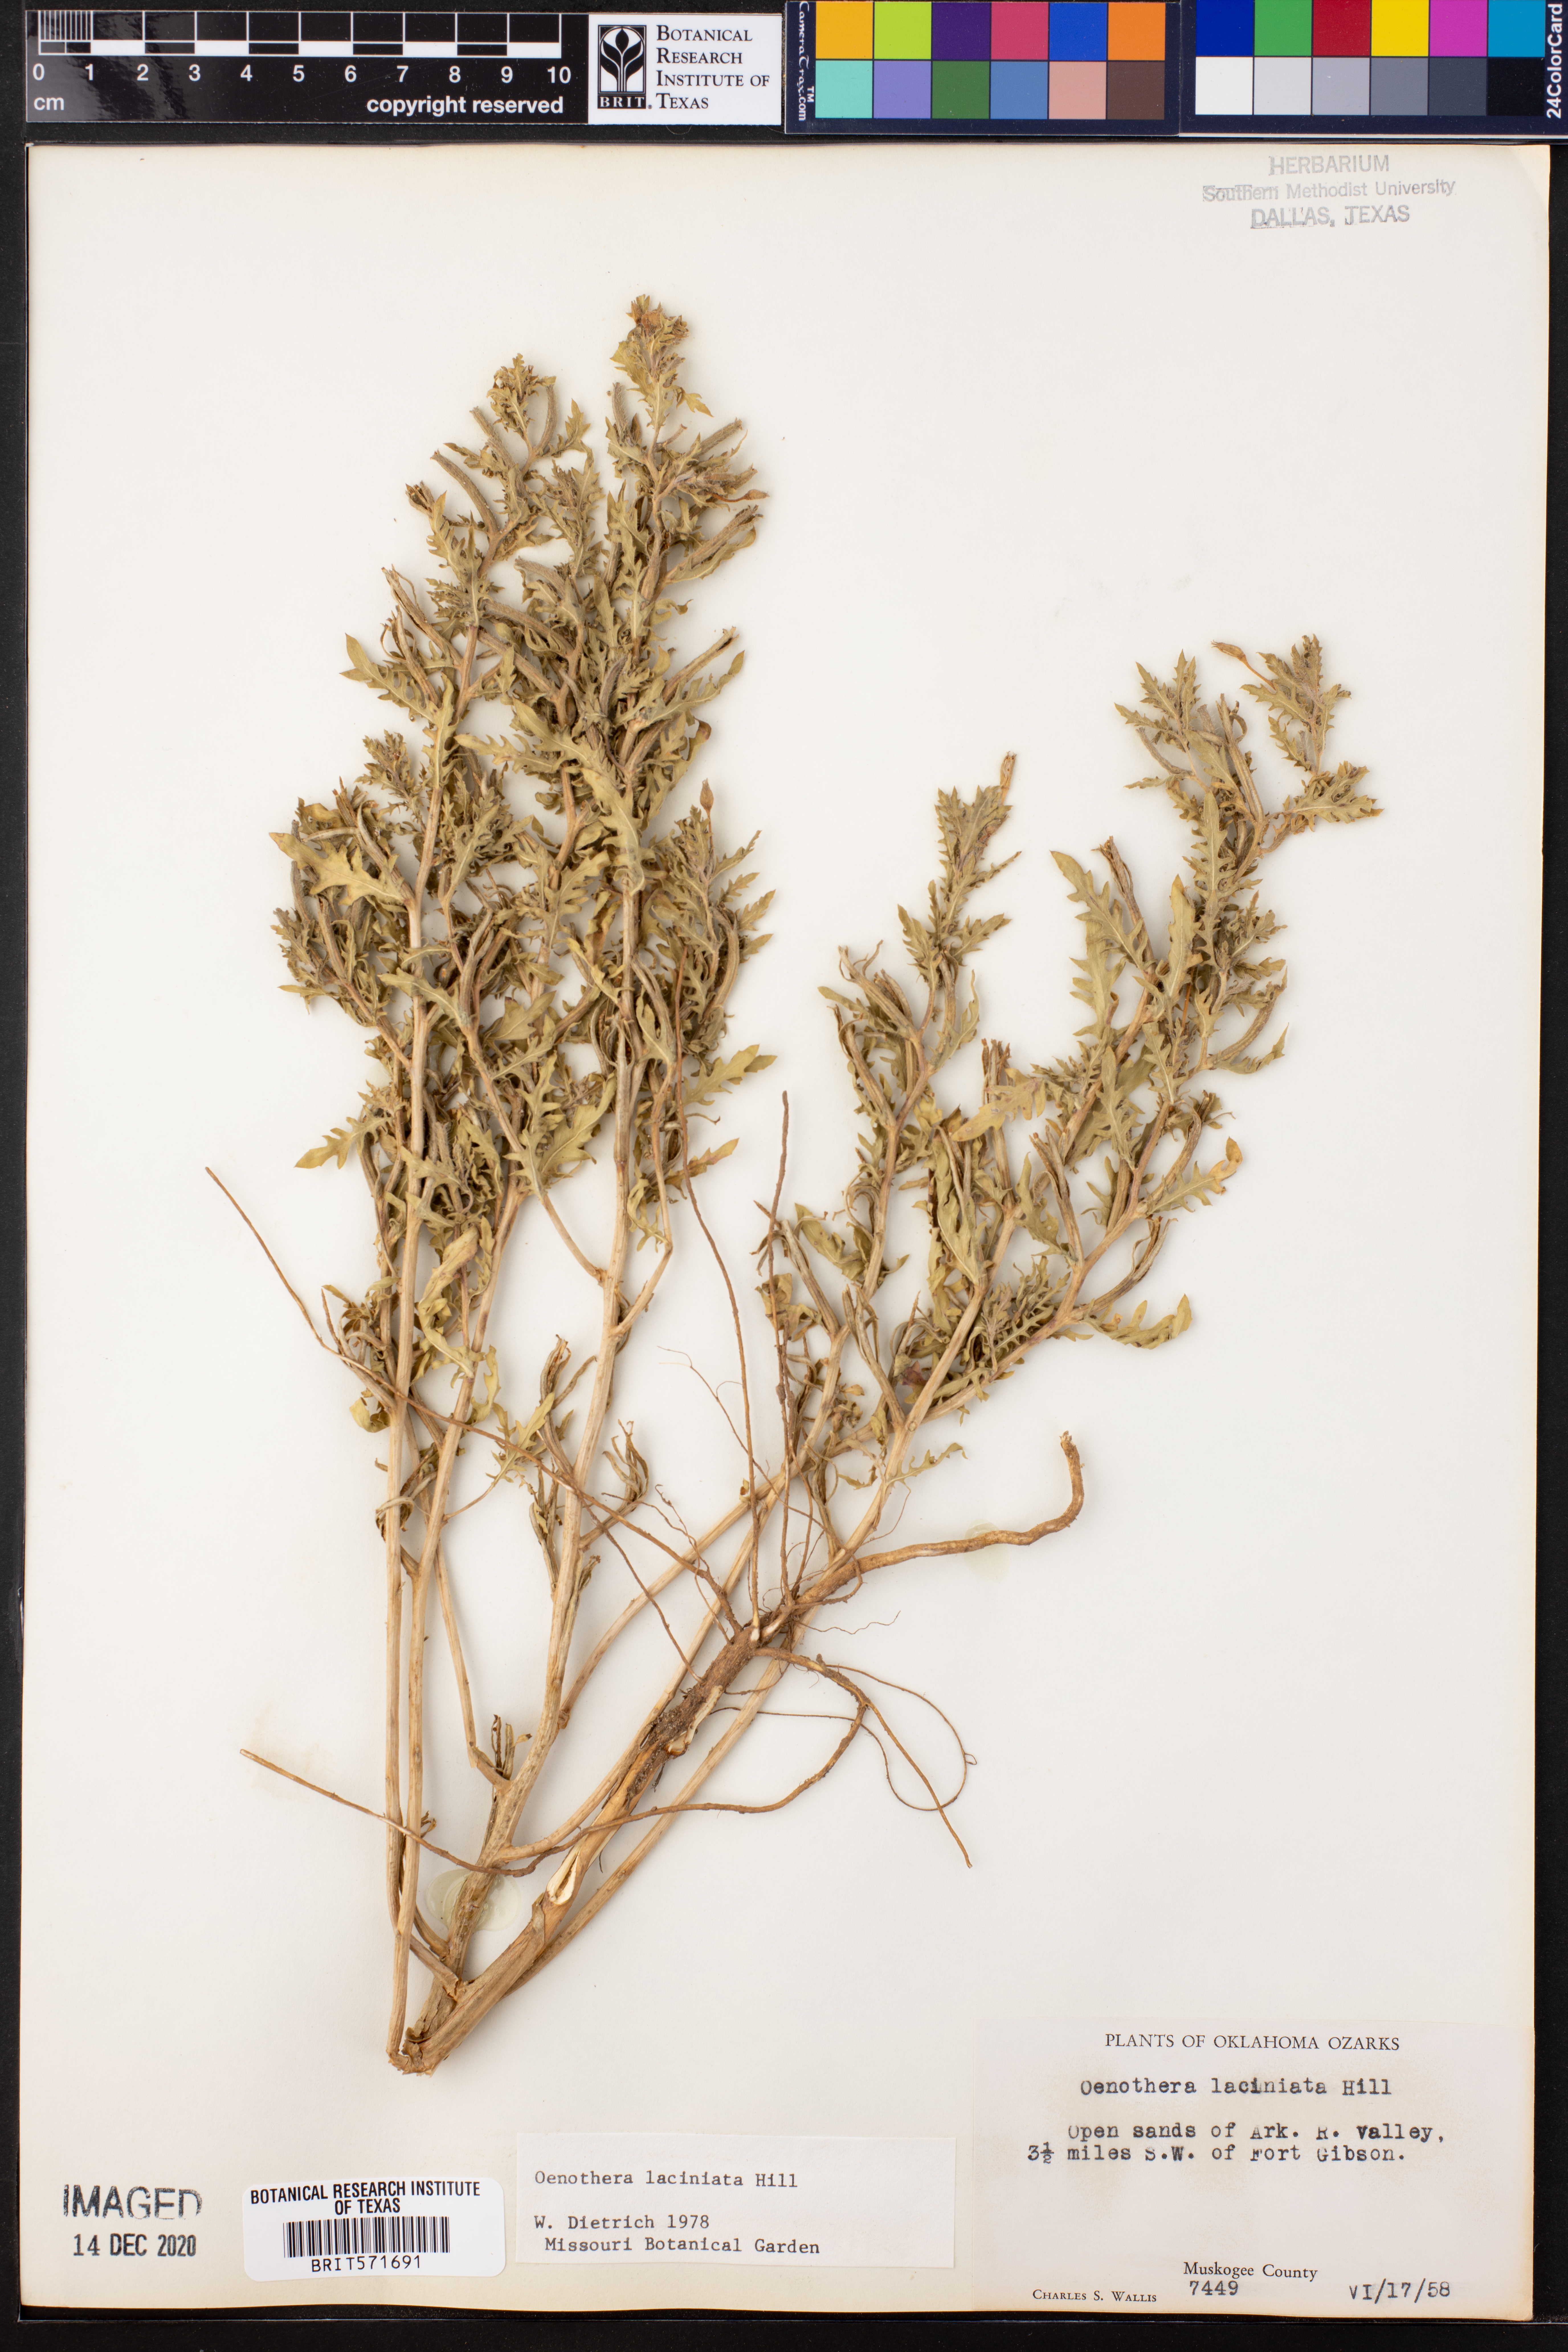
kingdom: Plantae
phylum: Tracheophyta
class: Magnoliopsida
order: Myrtales
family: Onagraceae
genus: Oenothera
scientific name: Oenothera laciniata
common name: Cut-leaved evening-primrose
